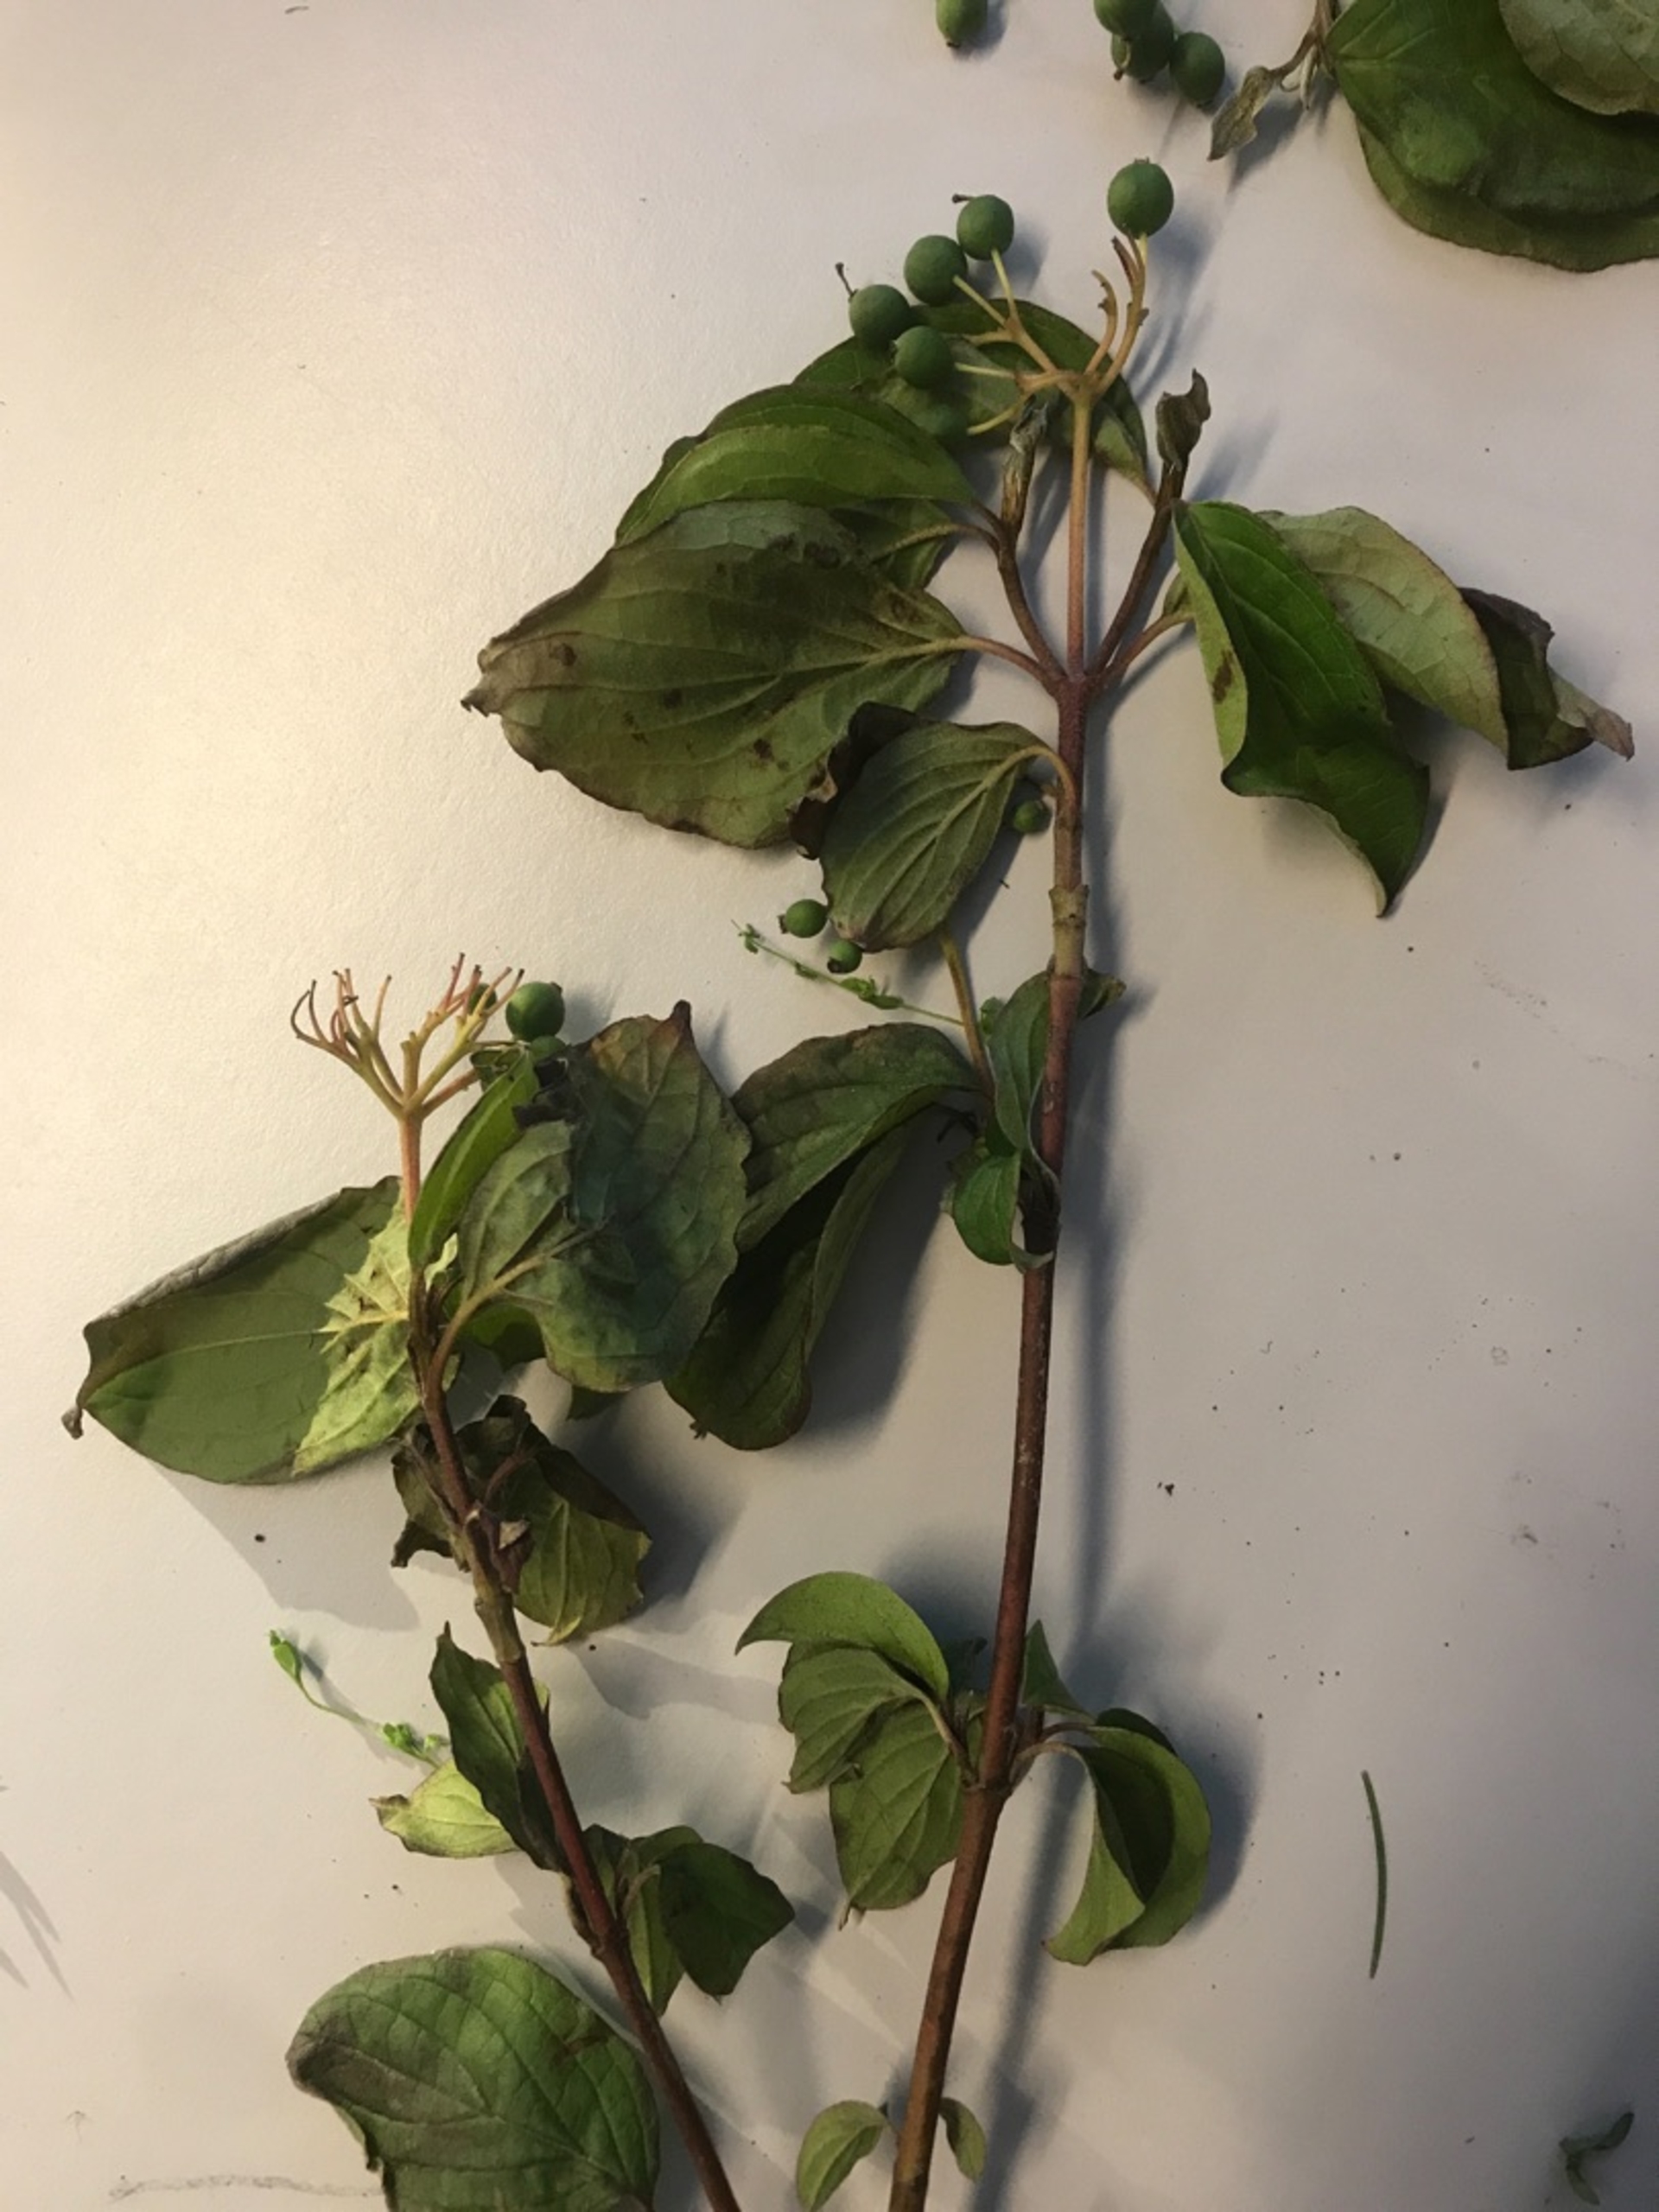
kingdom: Plantae
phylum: Tracheophyta
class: Magnoliopsida
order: Cornales
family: Cornaceae
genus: Cornus
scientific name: Cornus sanguinea
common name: Rød kornel
